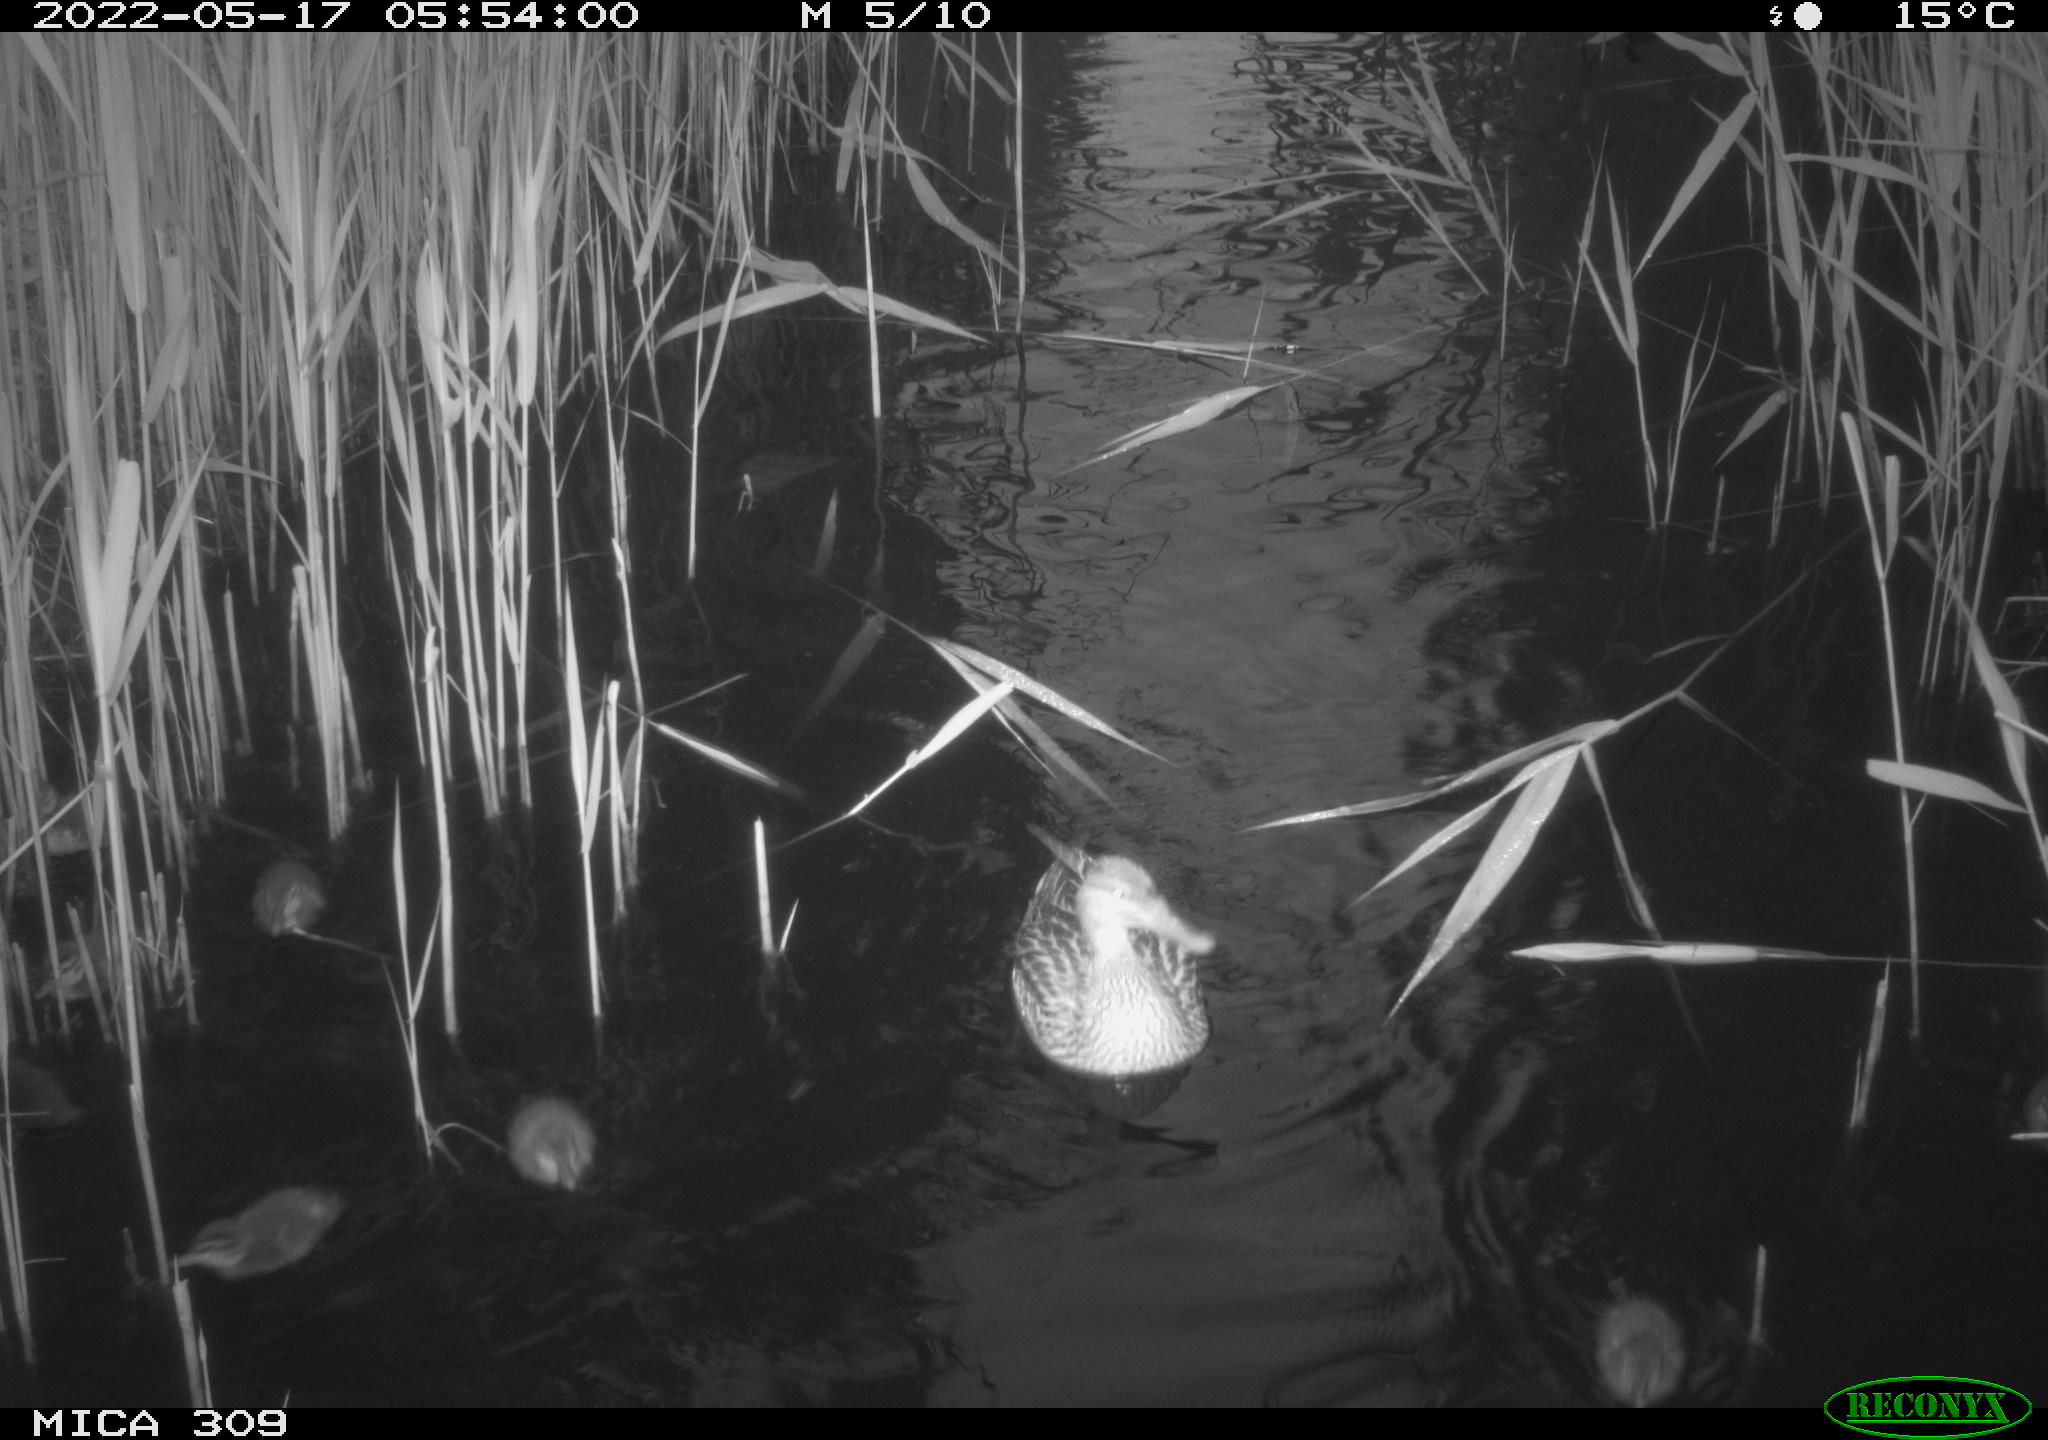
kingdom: Animalia
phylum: Chordata
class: Aves
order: Anseriformes
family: Anatidae
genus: Anas
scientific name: Anas platyrhynchos
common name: Mallard
